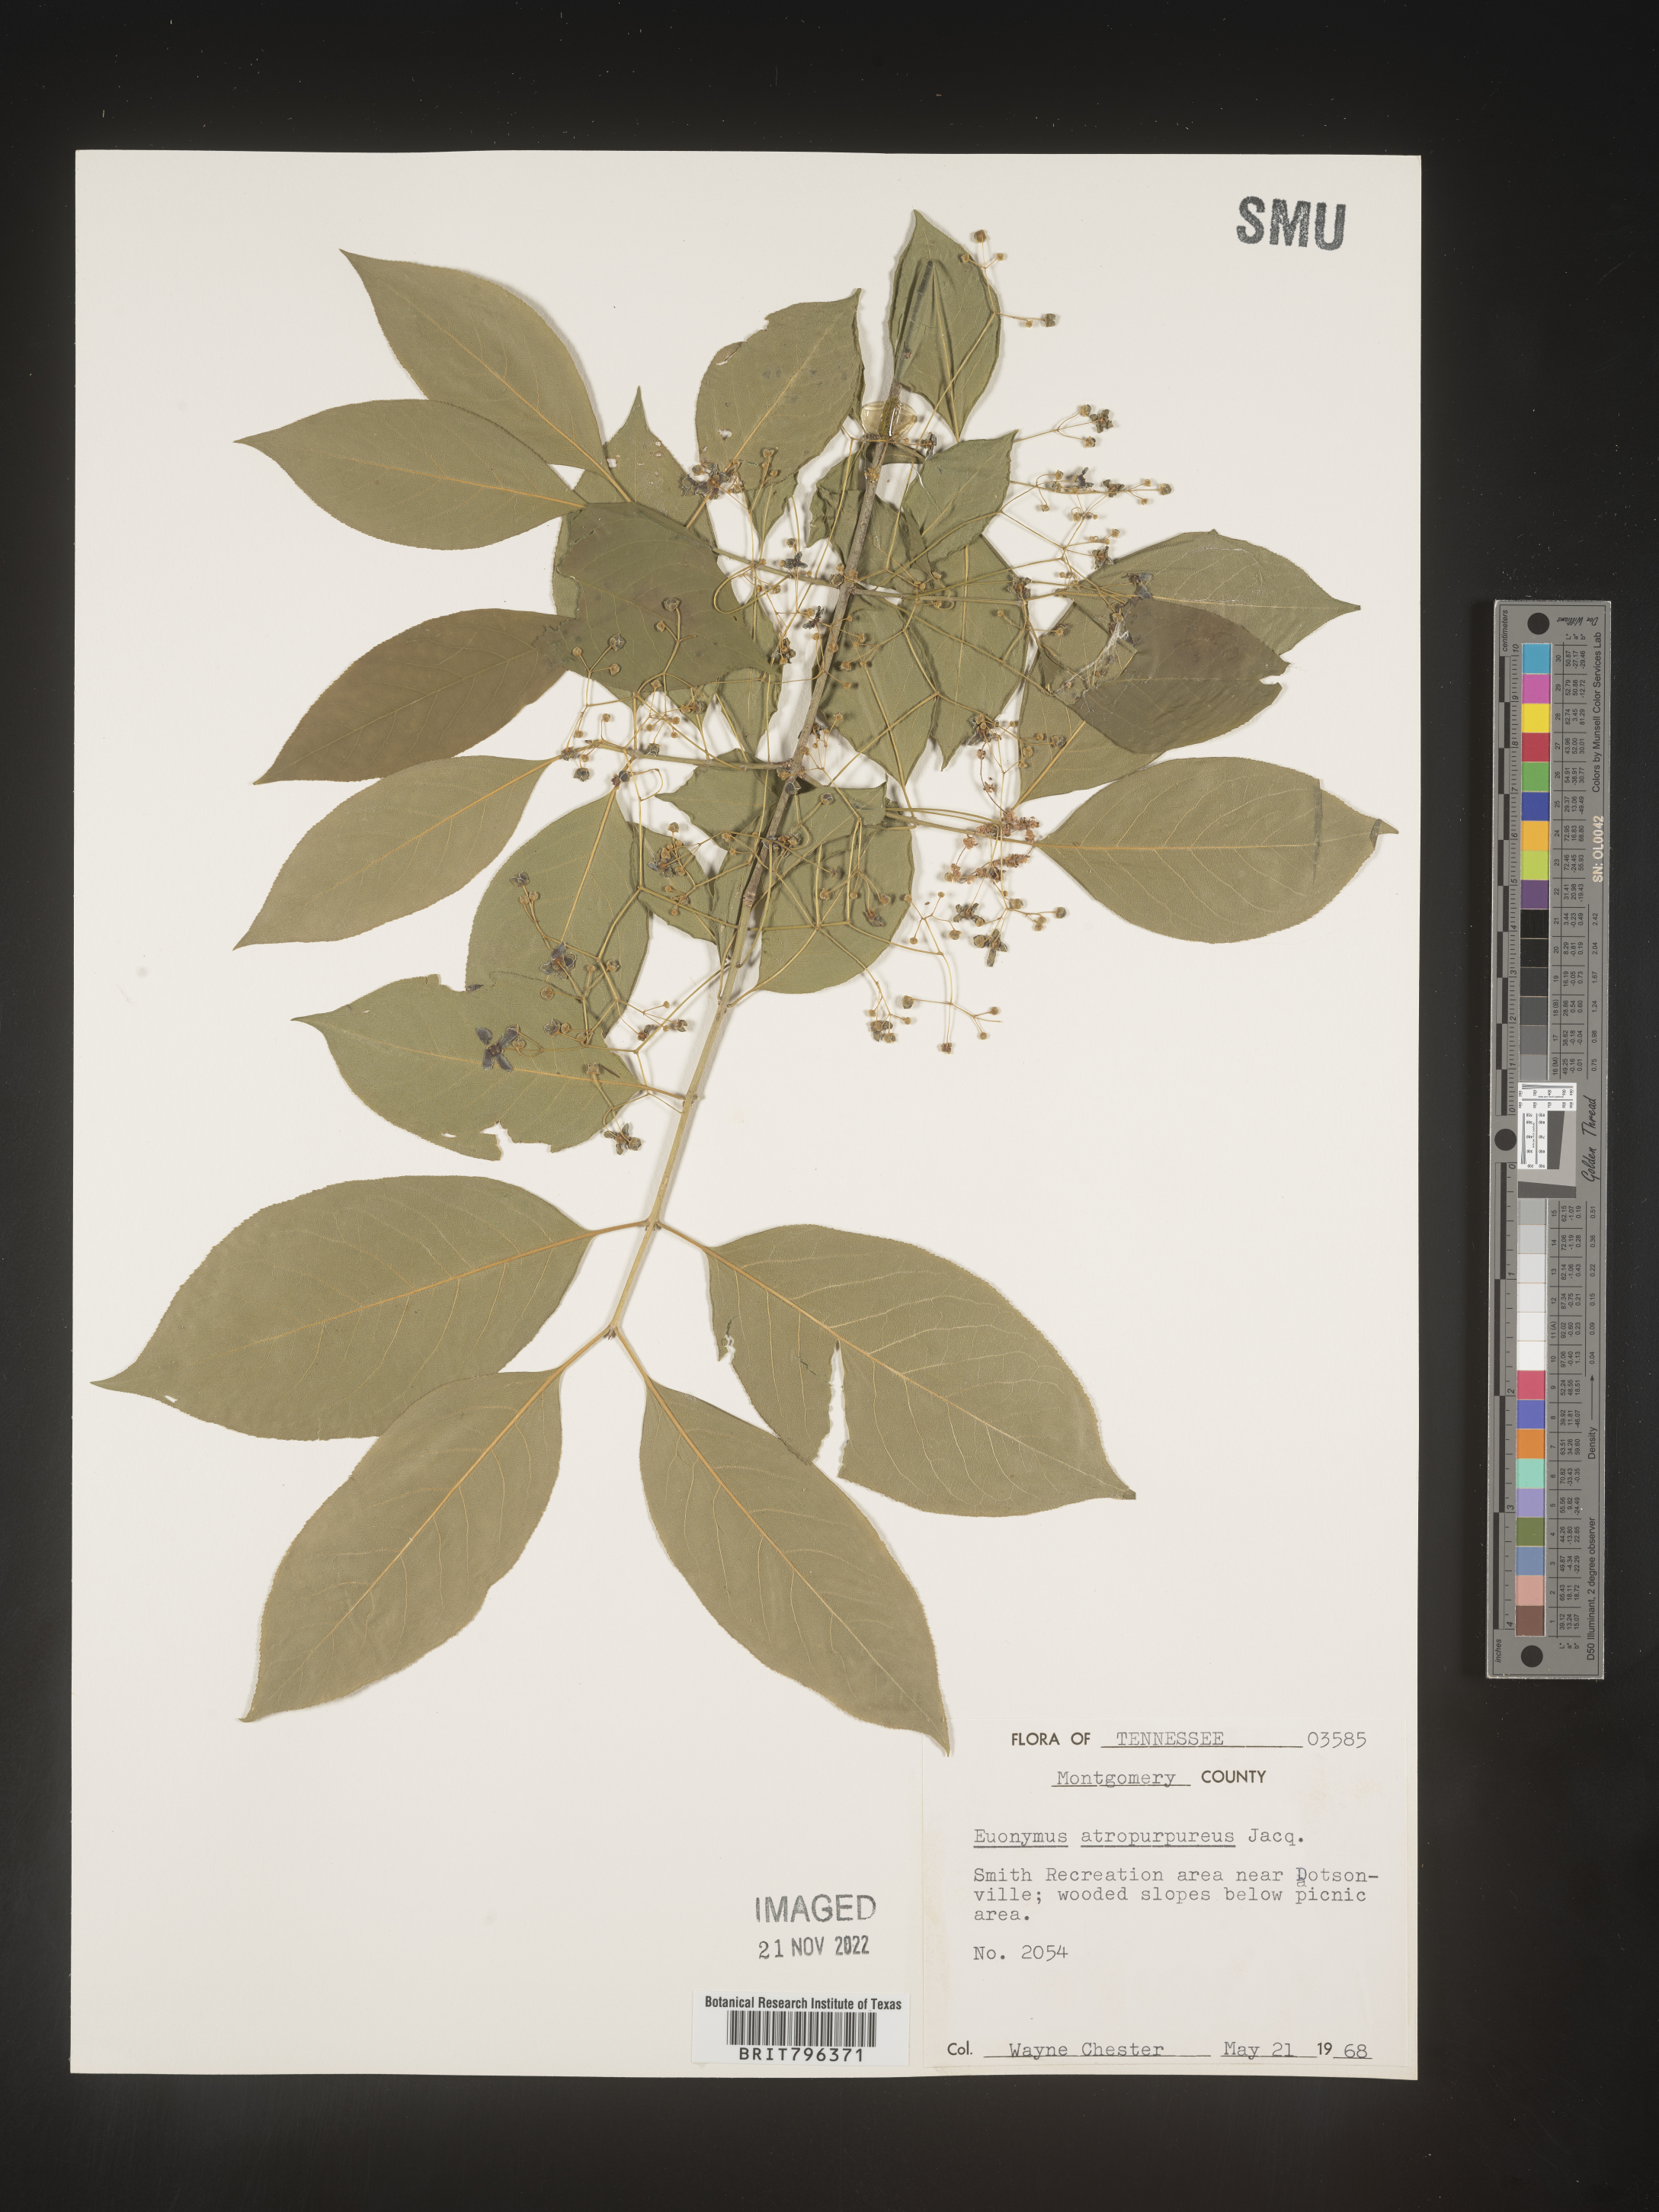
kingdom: Plantae
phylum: Tracheophyta
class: Magnoliopsida
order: Celastrales
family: Celastraceae
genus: Euonymus
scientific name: Euonymus atropurpureus
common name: Eastern wahoo
